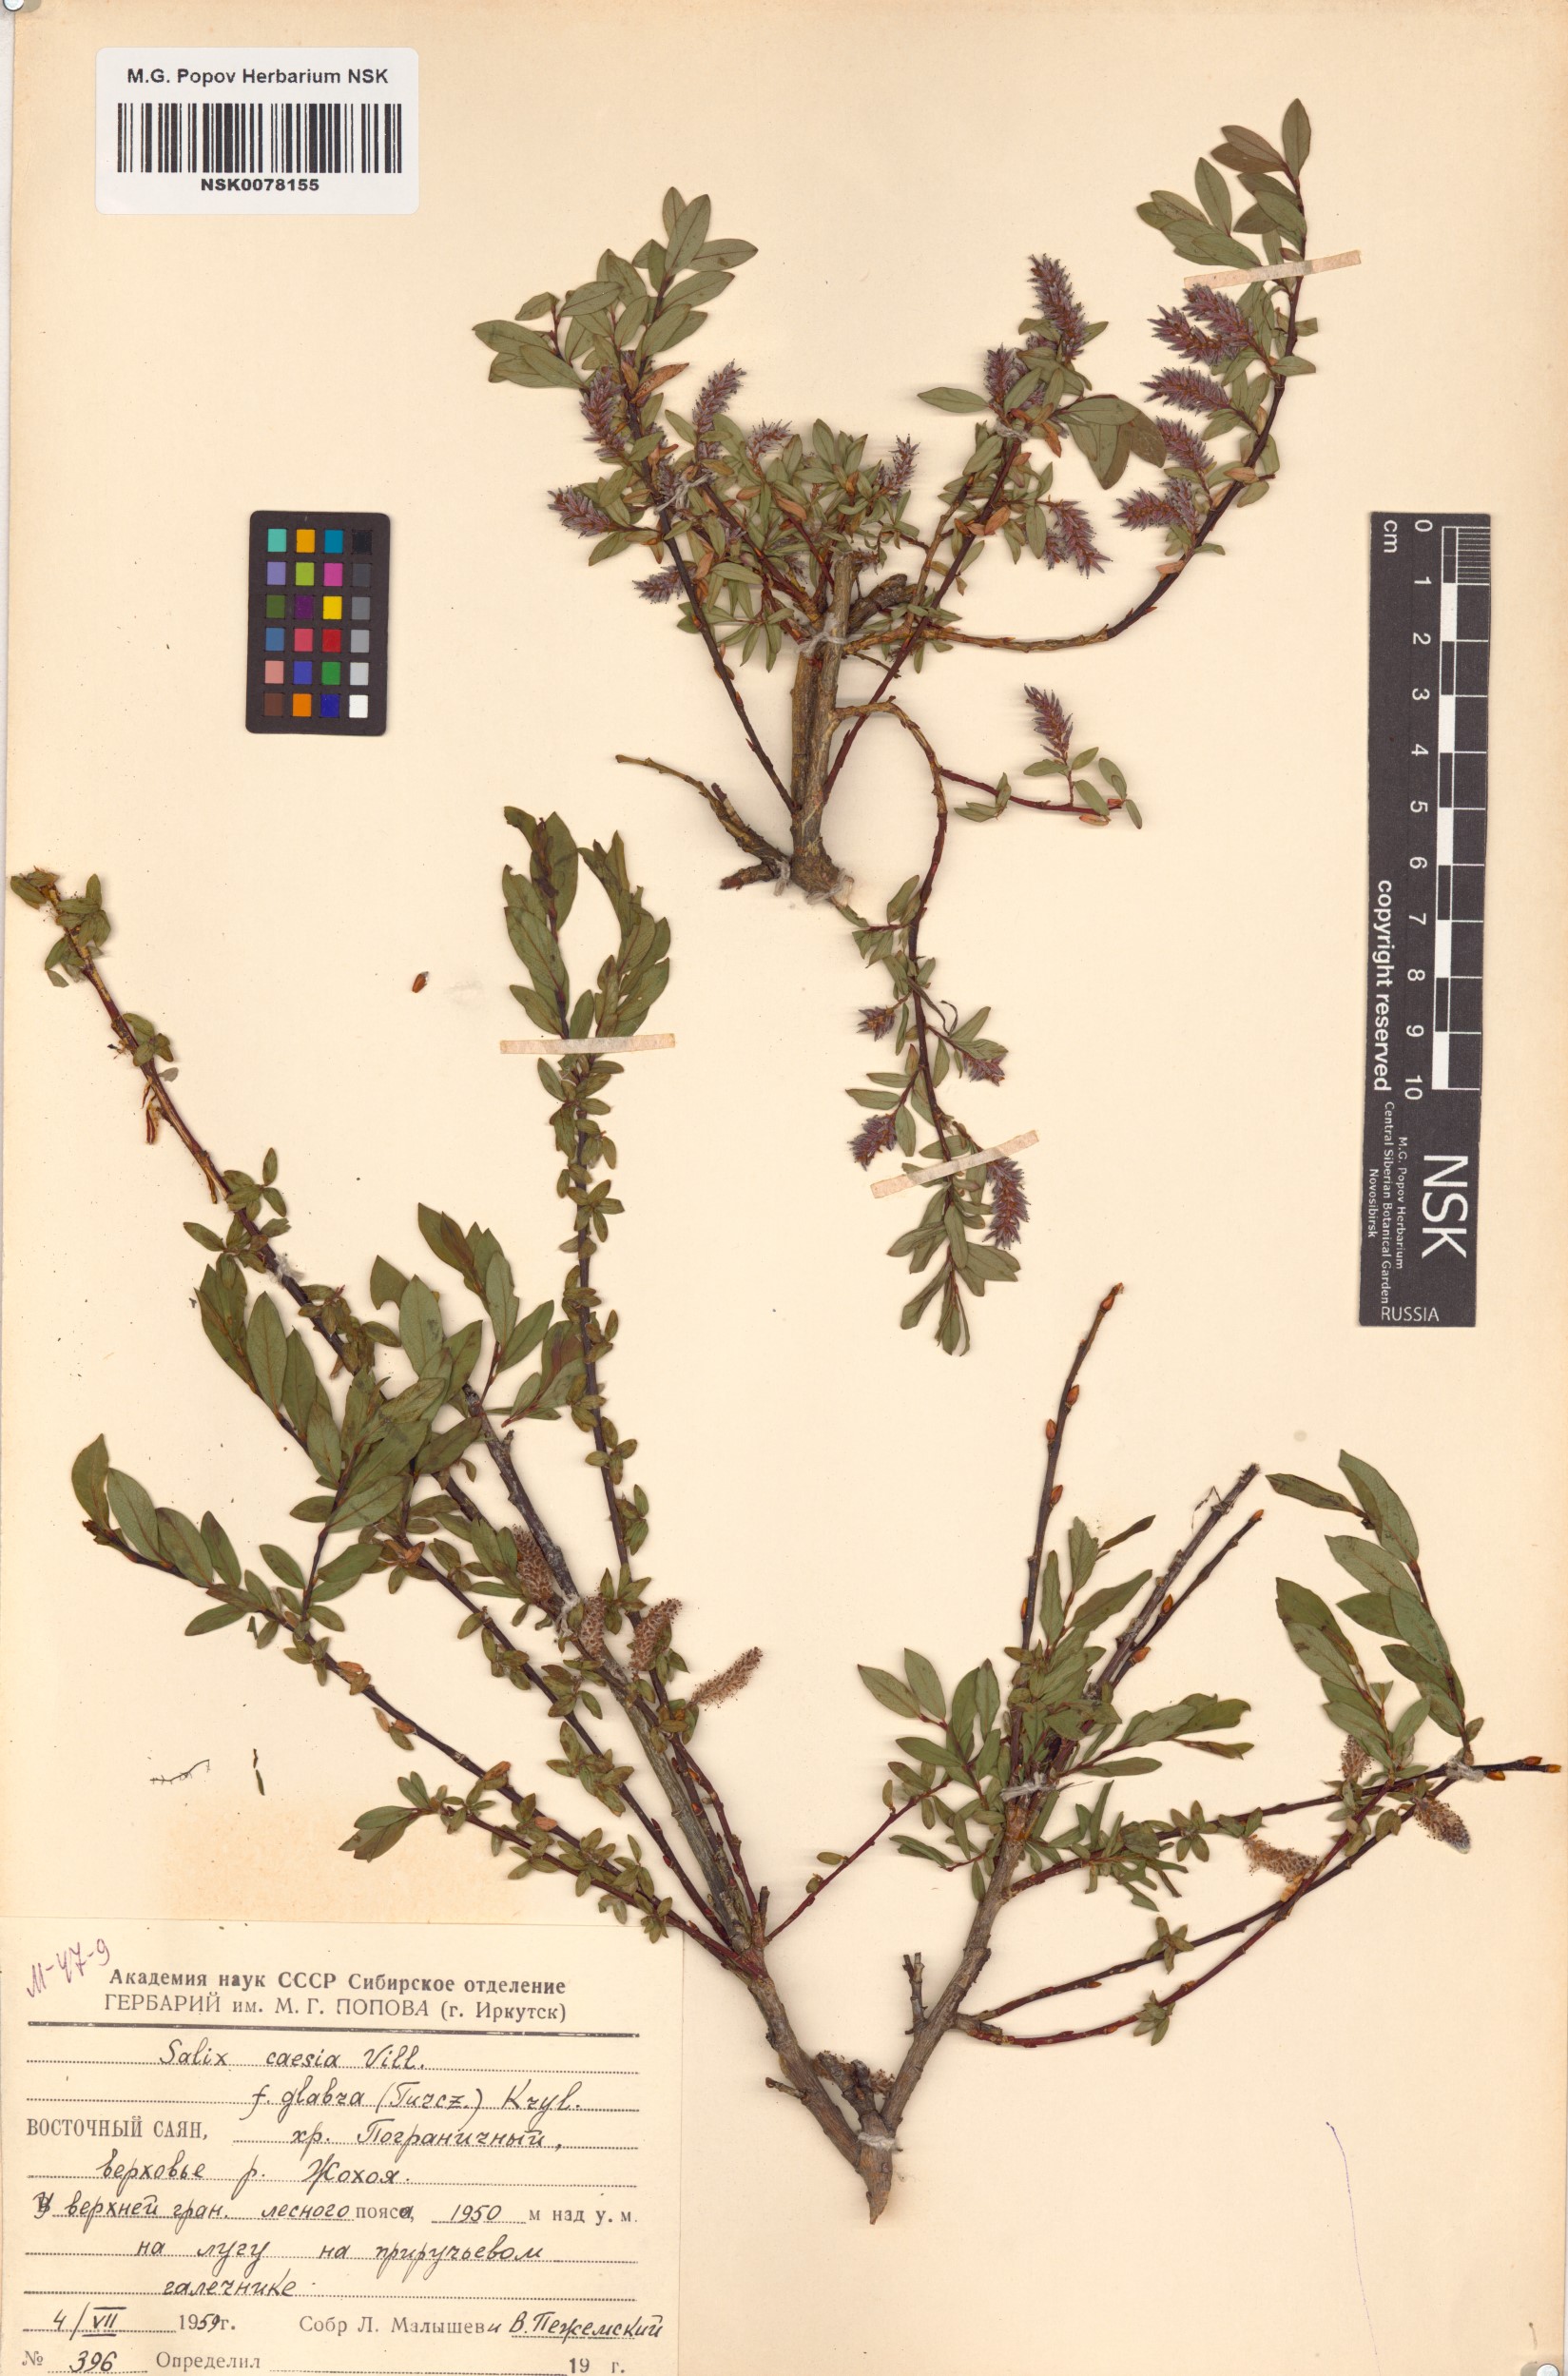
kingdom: Plantae
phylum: Tracheophyta
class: Magnoliopsida
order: Malpighiales
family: Salicaceae
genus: Salix
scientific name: Salix caesia
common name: Blue willow
